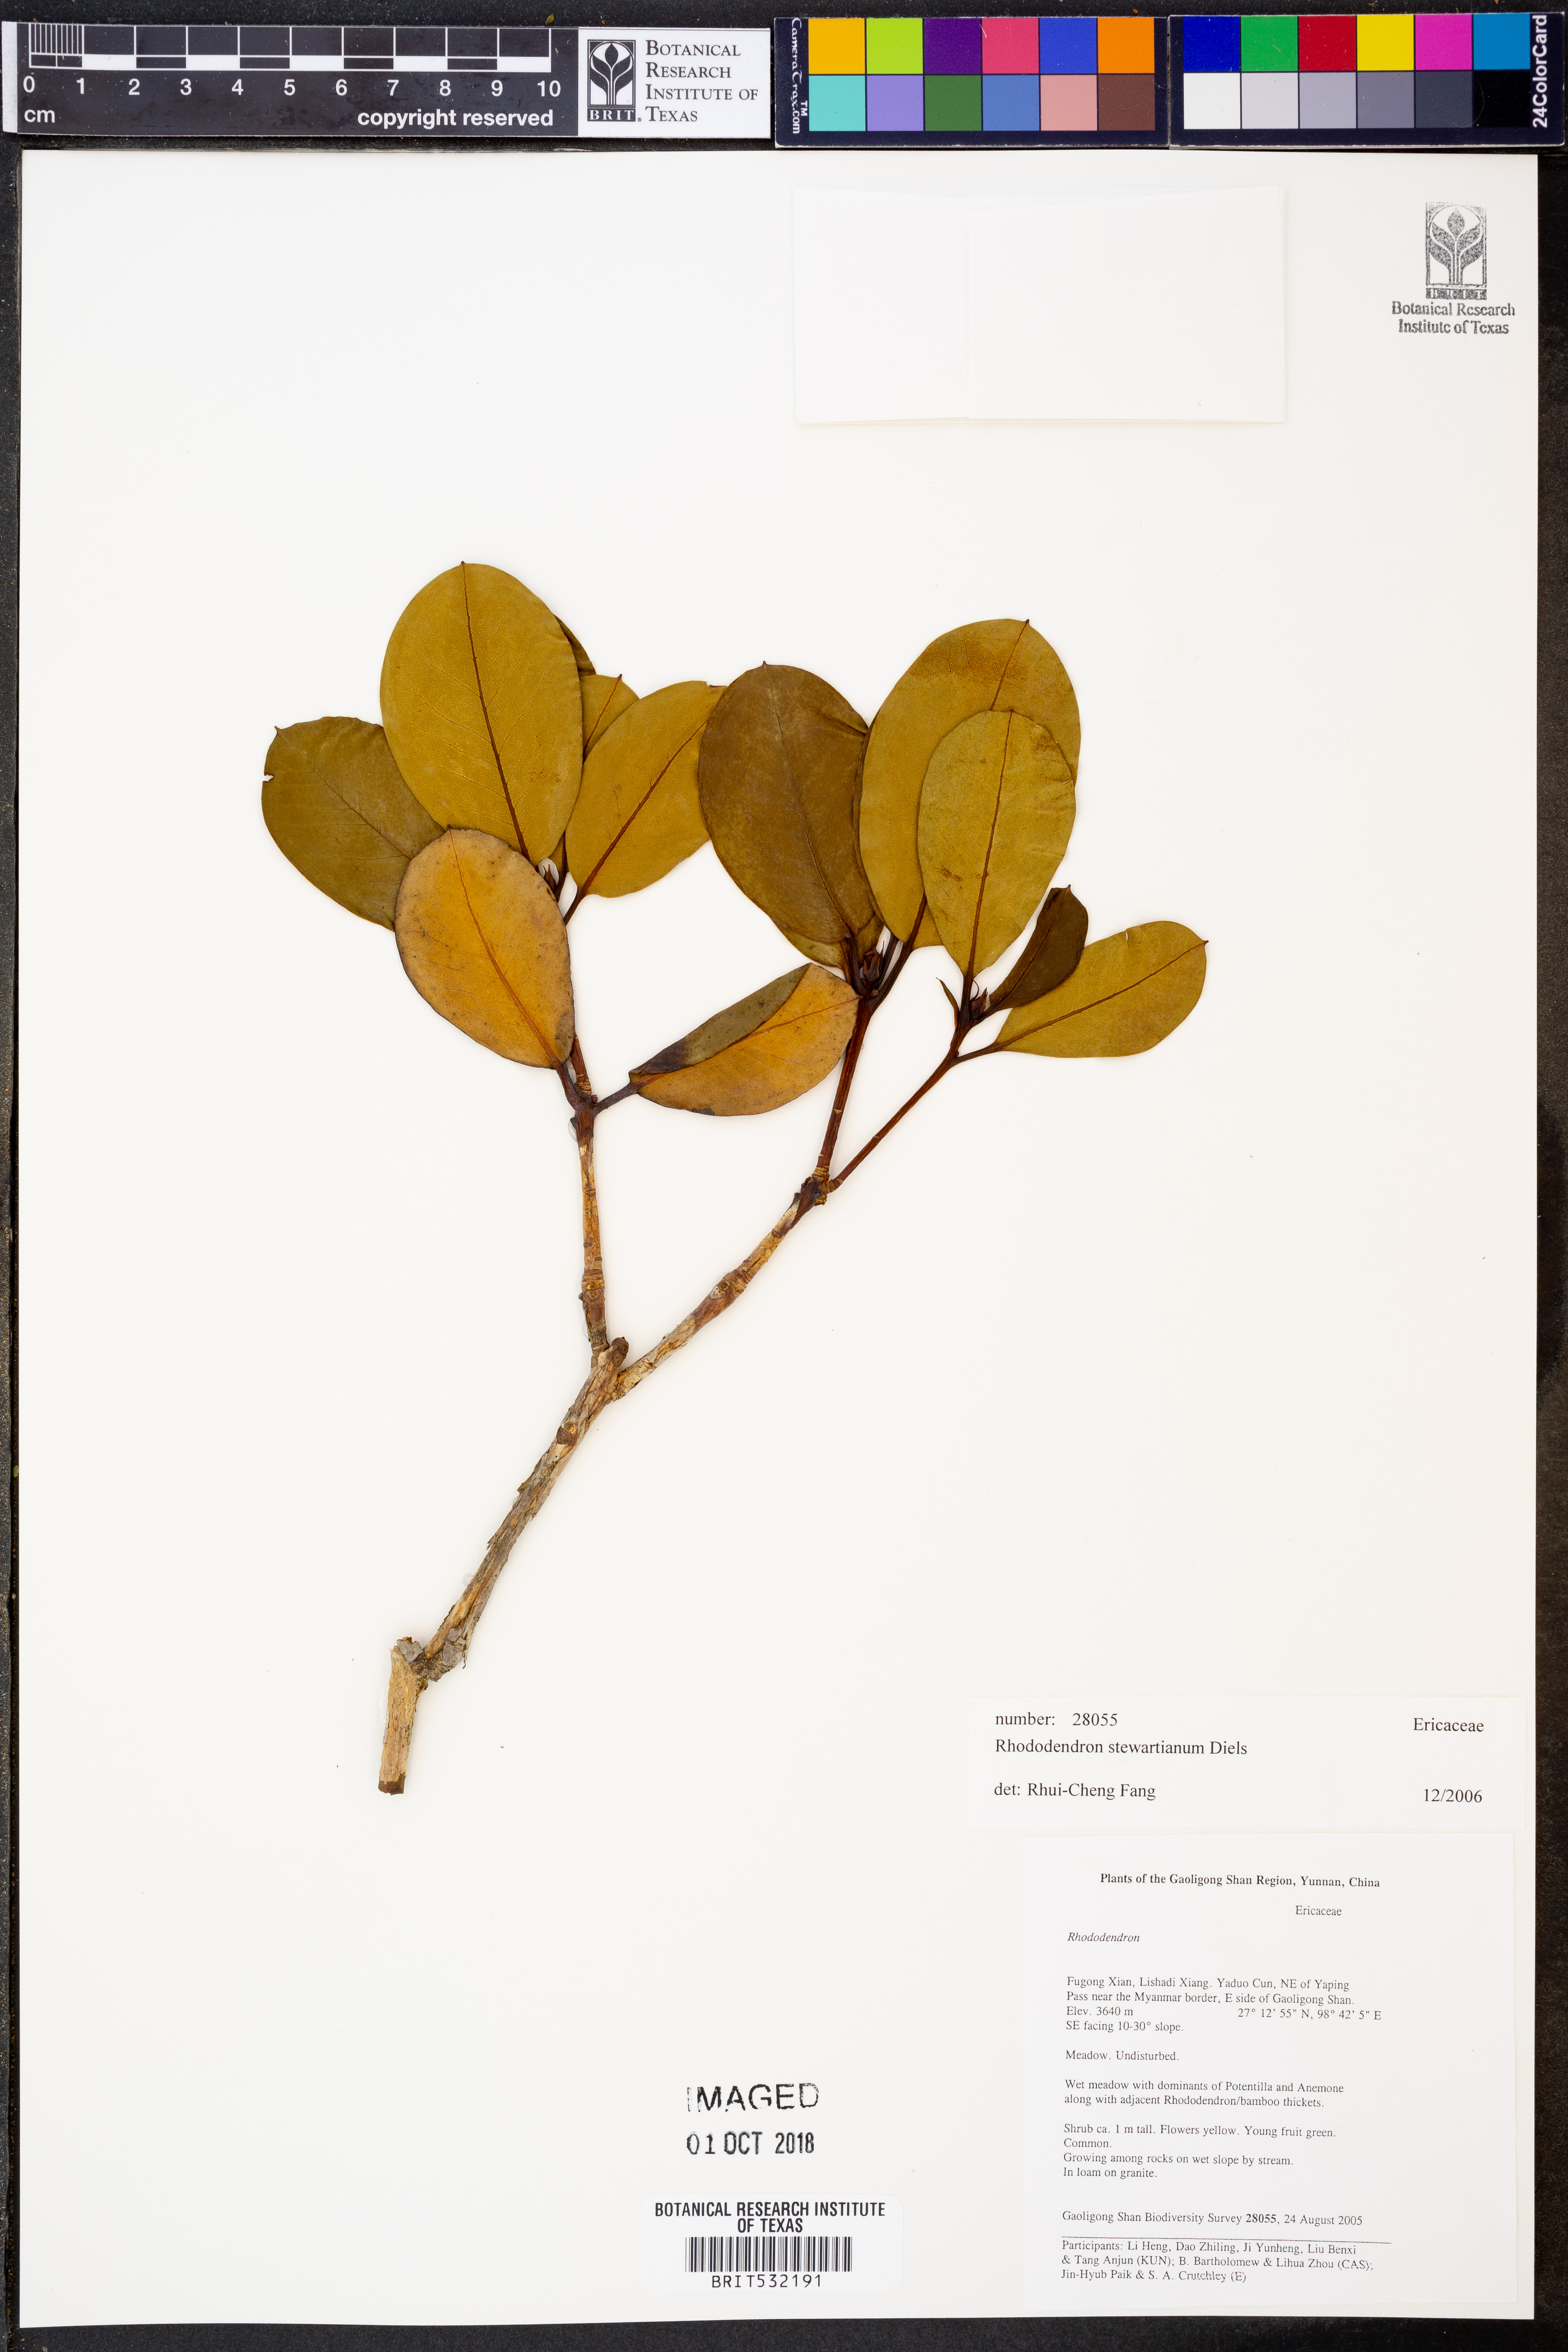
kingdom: Plantae
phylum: Tracheophyta
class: Magnoliopsida
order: Ericales
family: Ericaceae
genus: Rhododendron
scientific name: Rhododendron stewartianum
